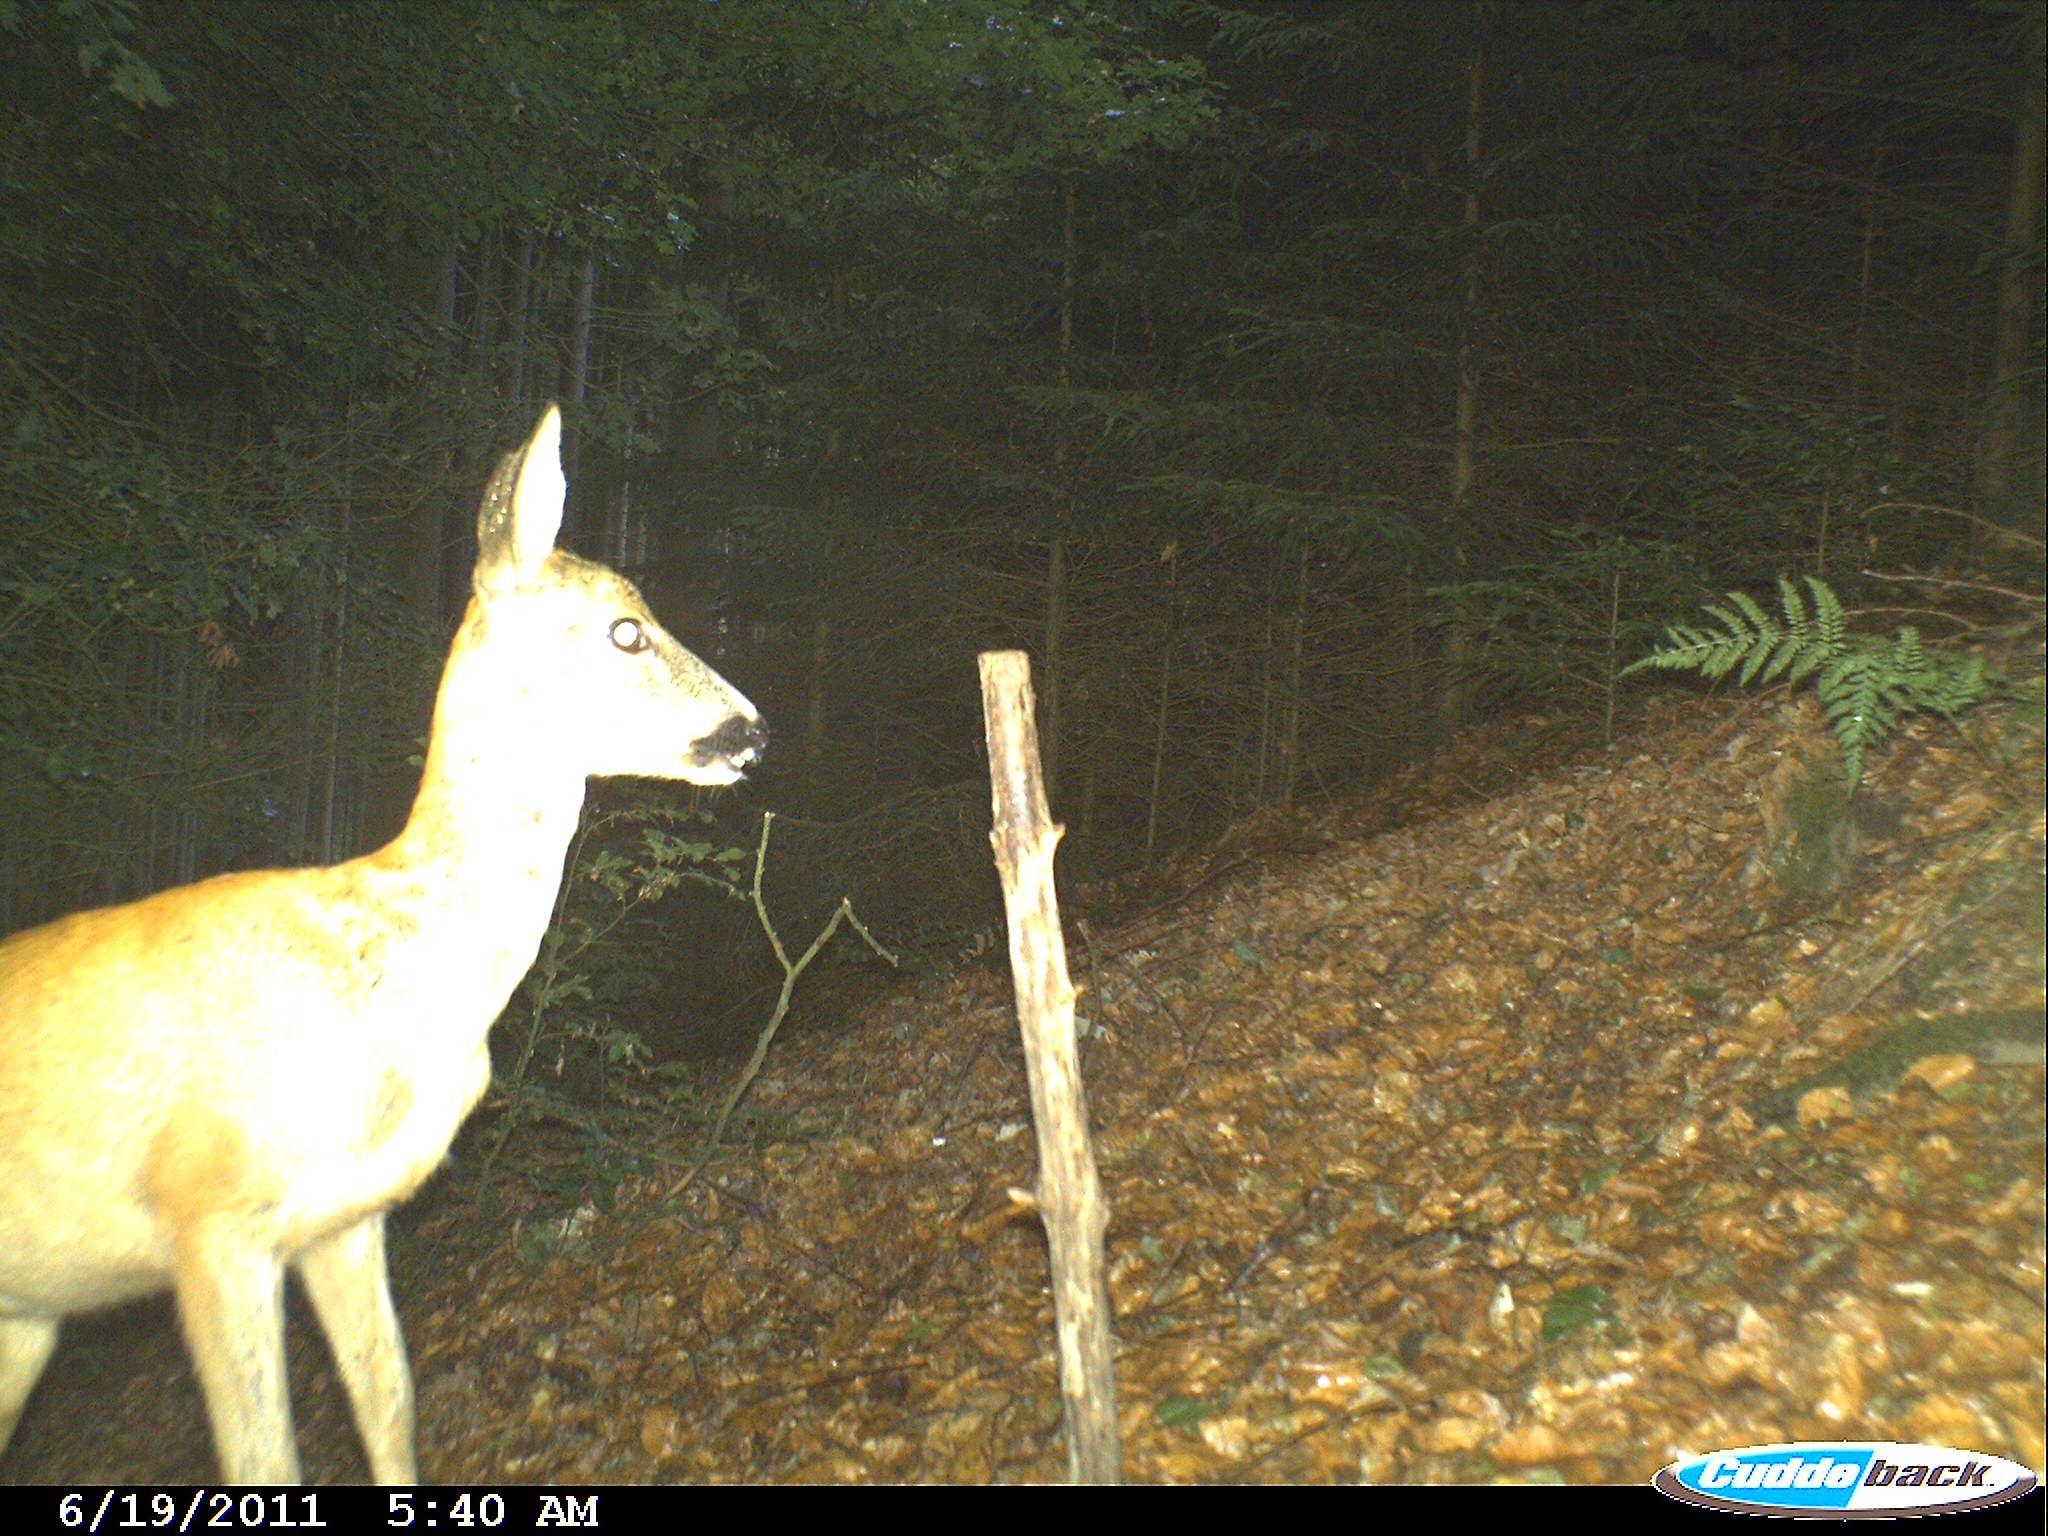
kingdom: Animalia
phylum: Chordata
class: Mammalia
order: Artiodactyla
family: Cervidae
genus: Capreolus
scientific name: Capreolus capreolus
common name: Western roe deer
